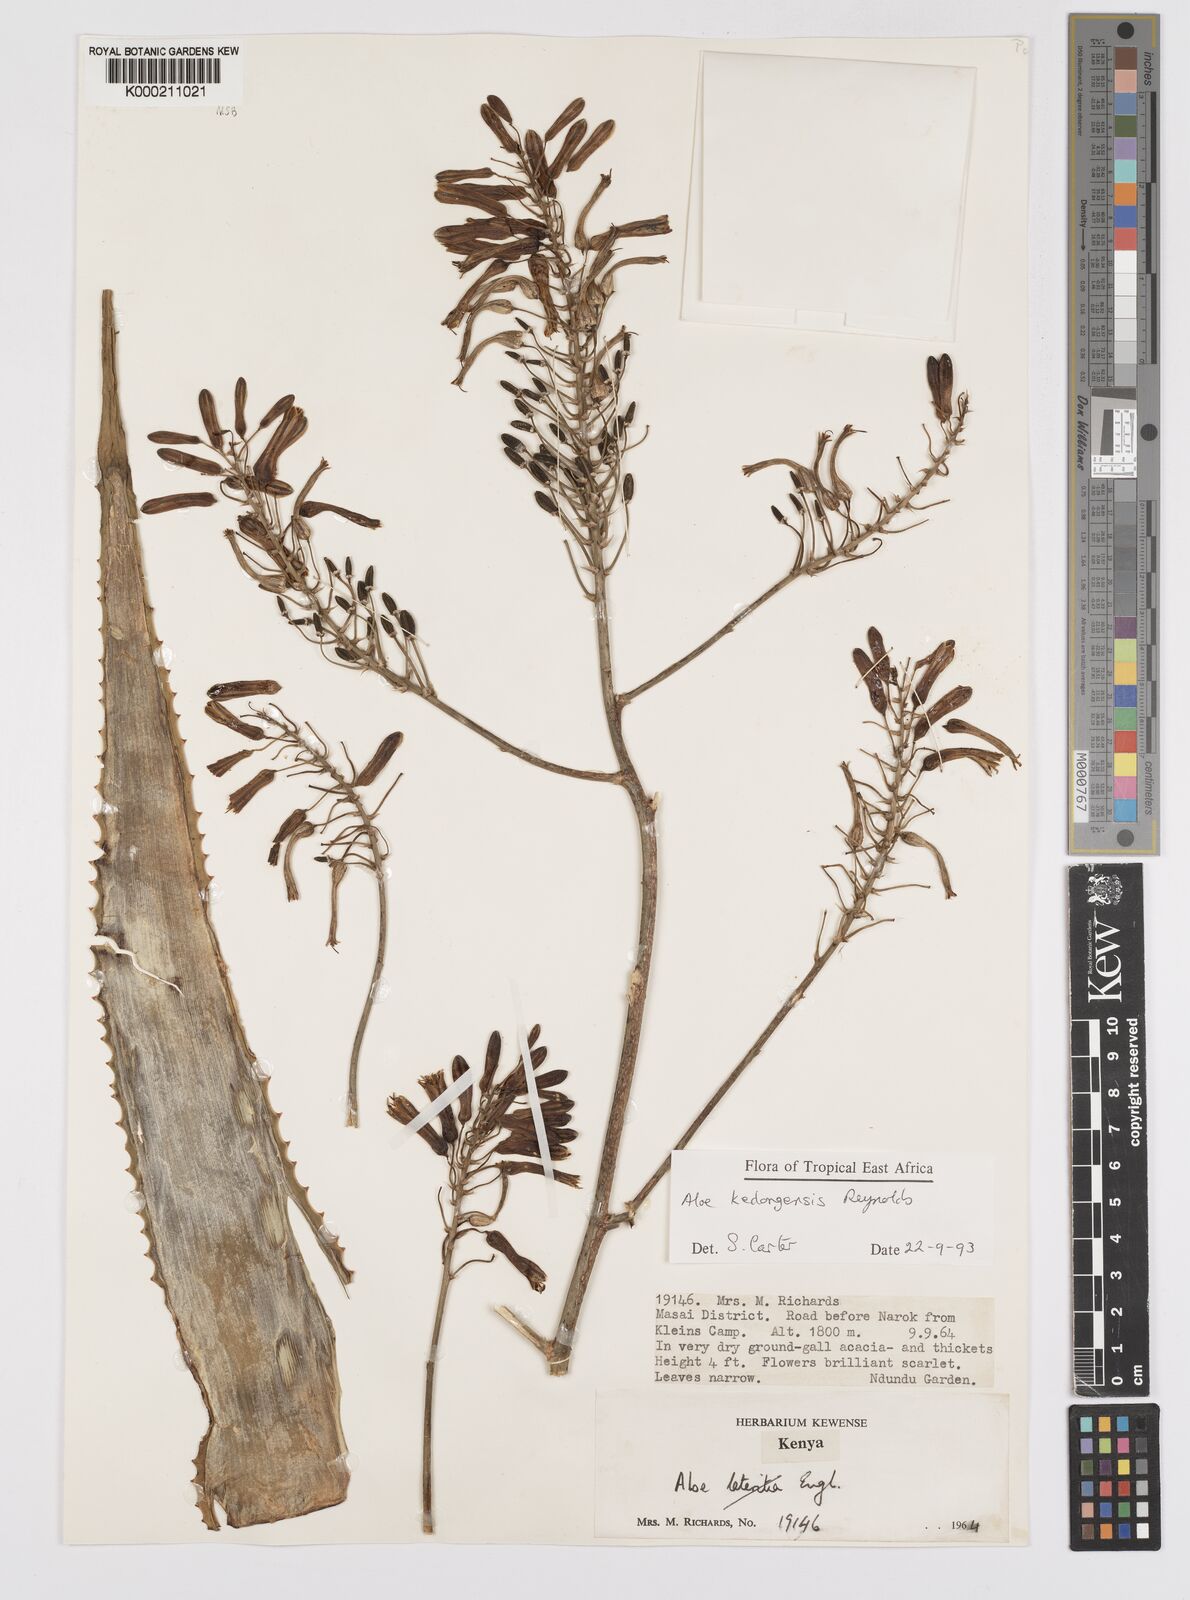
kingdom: Plantae
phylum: Tracheophyta
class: Liliopsida
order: Asparagales
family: Asphodelaceae
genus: Aloe
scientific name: Aloe kedongensis
